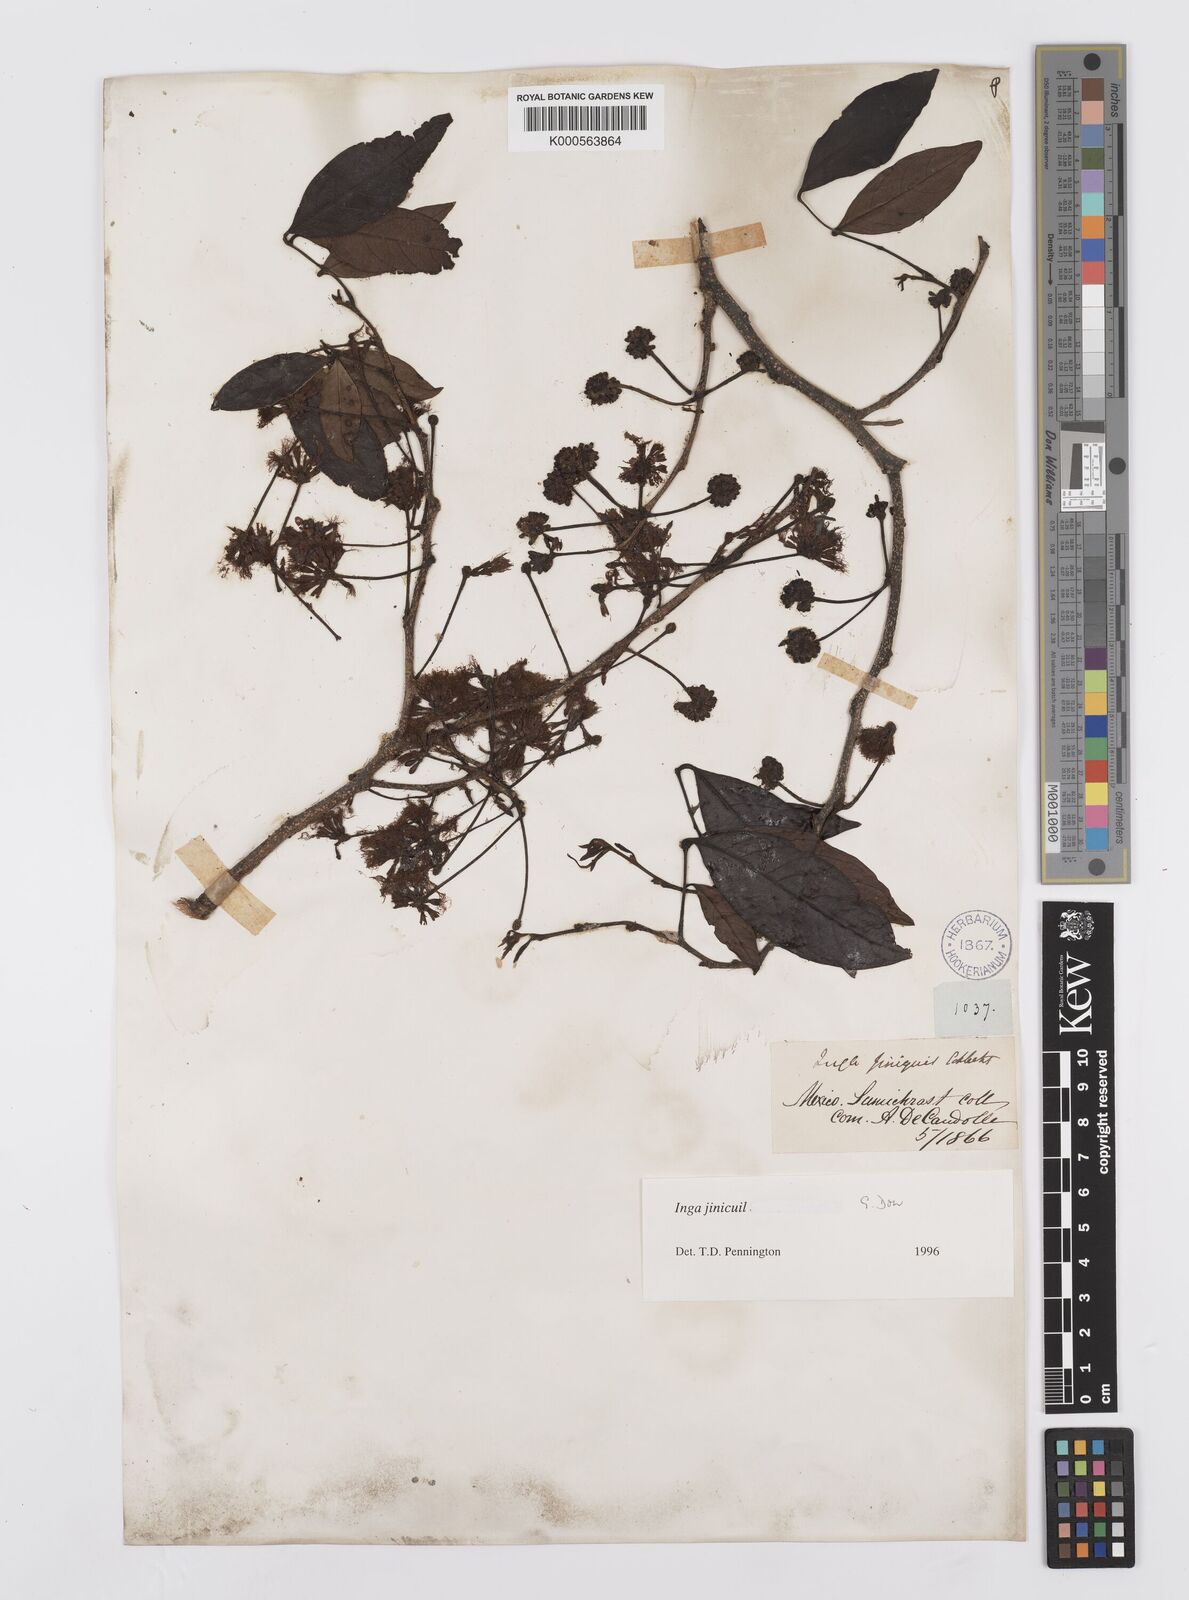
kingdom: Plantae
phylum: Tracheophyta
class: Magnoliopsida
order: Fabales
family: Fabaceae
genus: Inga
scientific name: Inga inicuil
